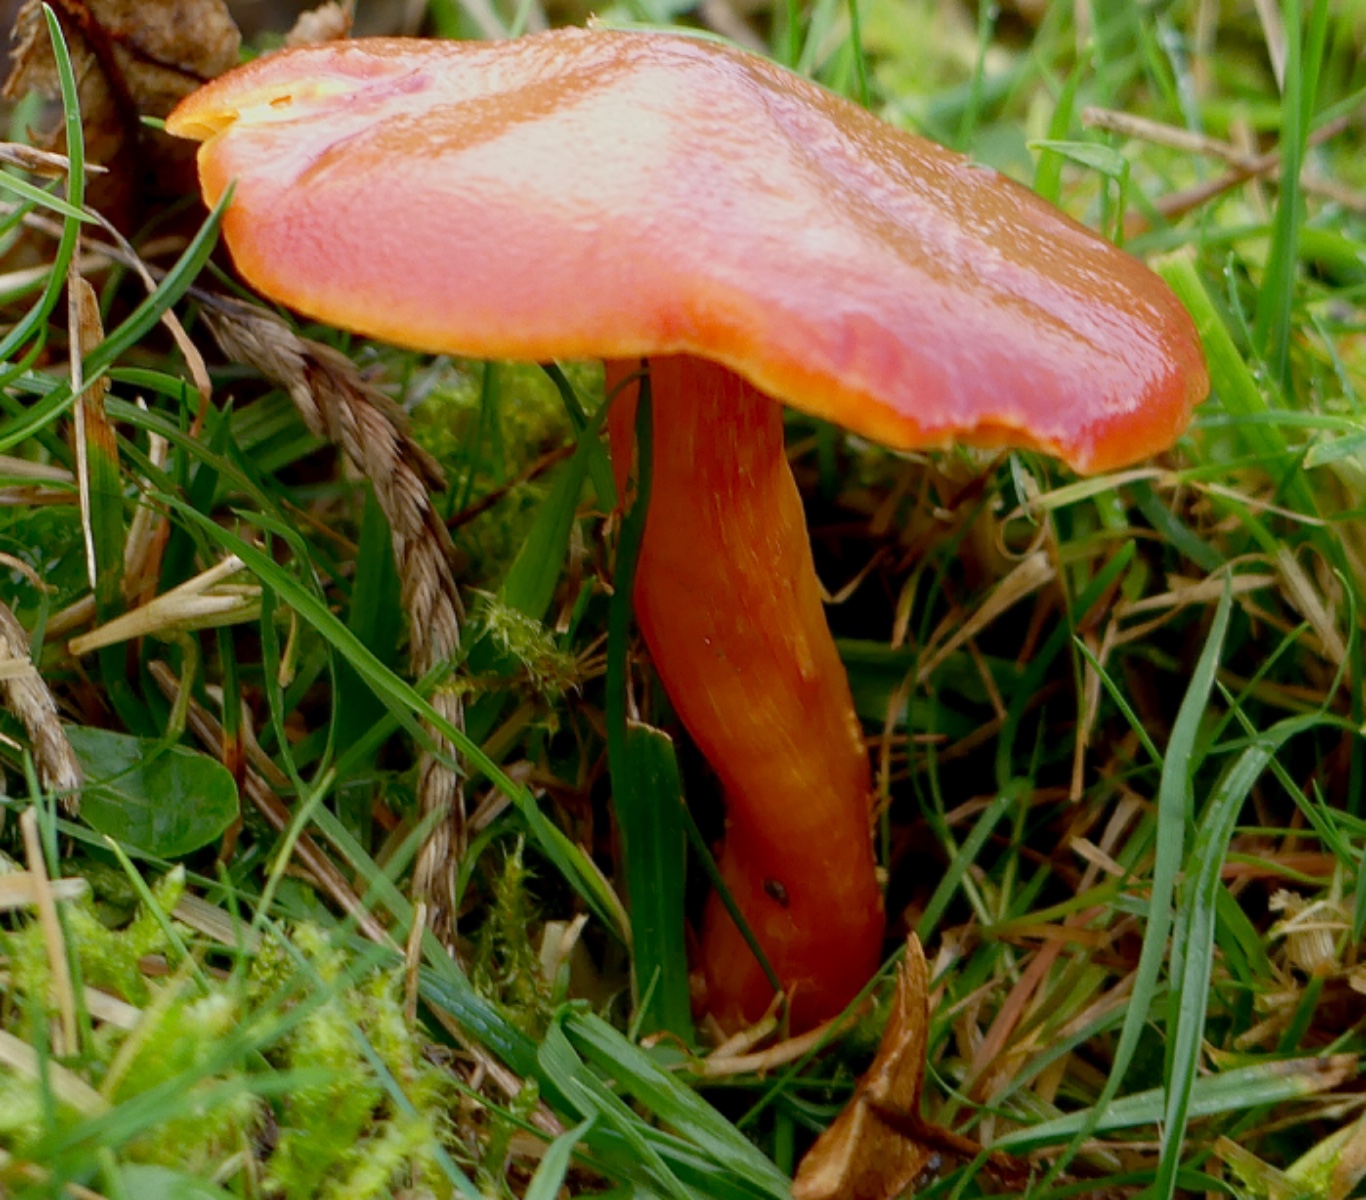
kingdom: Fungi
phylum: Basidiomycota
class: Agaricomycetes
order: Agaricales
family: Hygrophoraceae
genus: Hygrocybe
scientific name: Hygrocybe punicea
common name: skarlagen-vokshat
